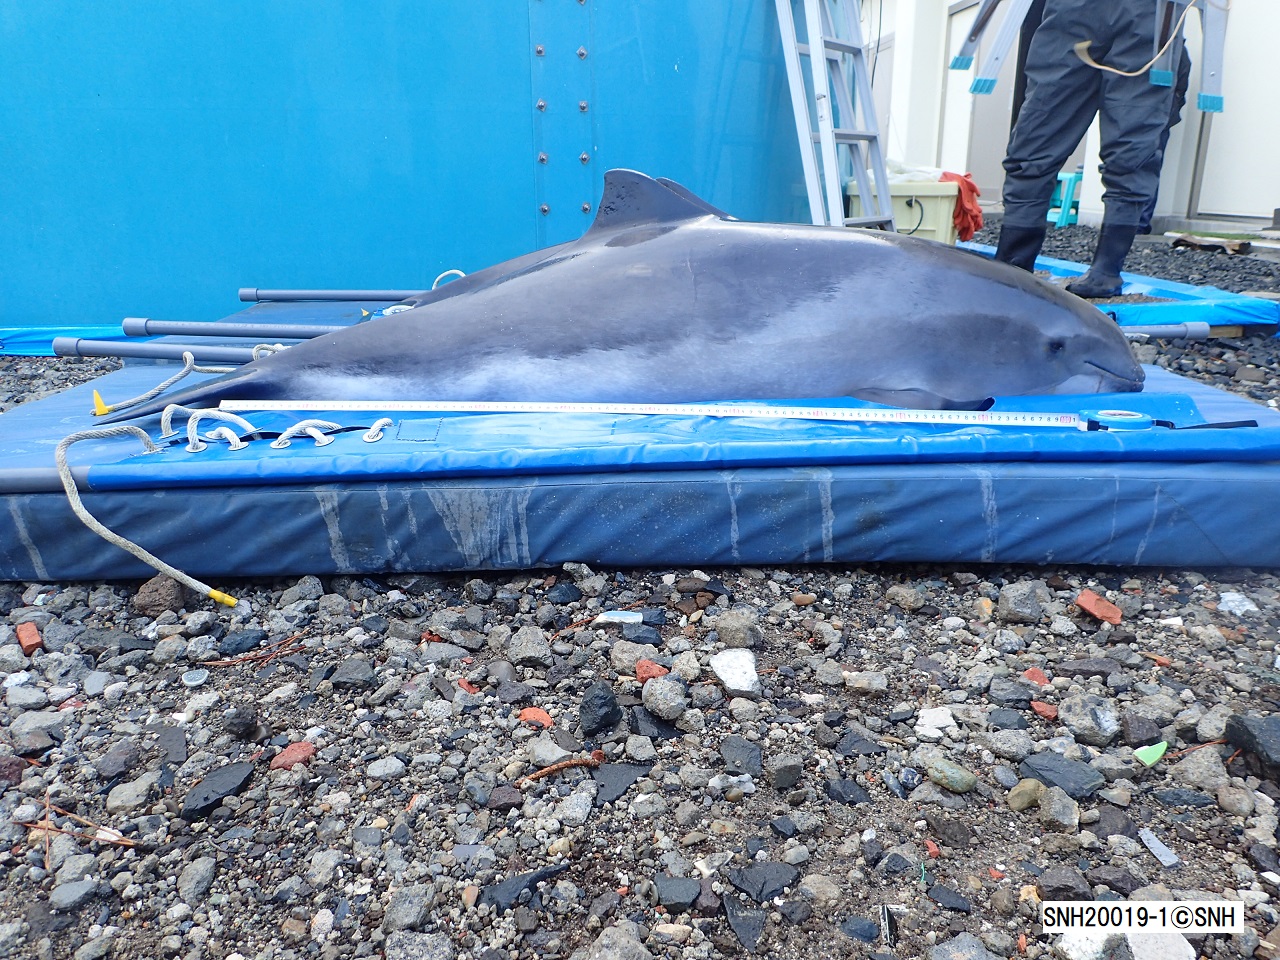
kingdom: Animalia
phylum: Chordata
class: Mammalia
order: Cetacea
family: Phocoenidae
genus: Phocoena
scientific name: Phocoena phocoena
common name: Harbour porpoise
